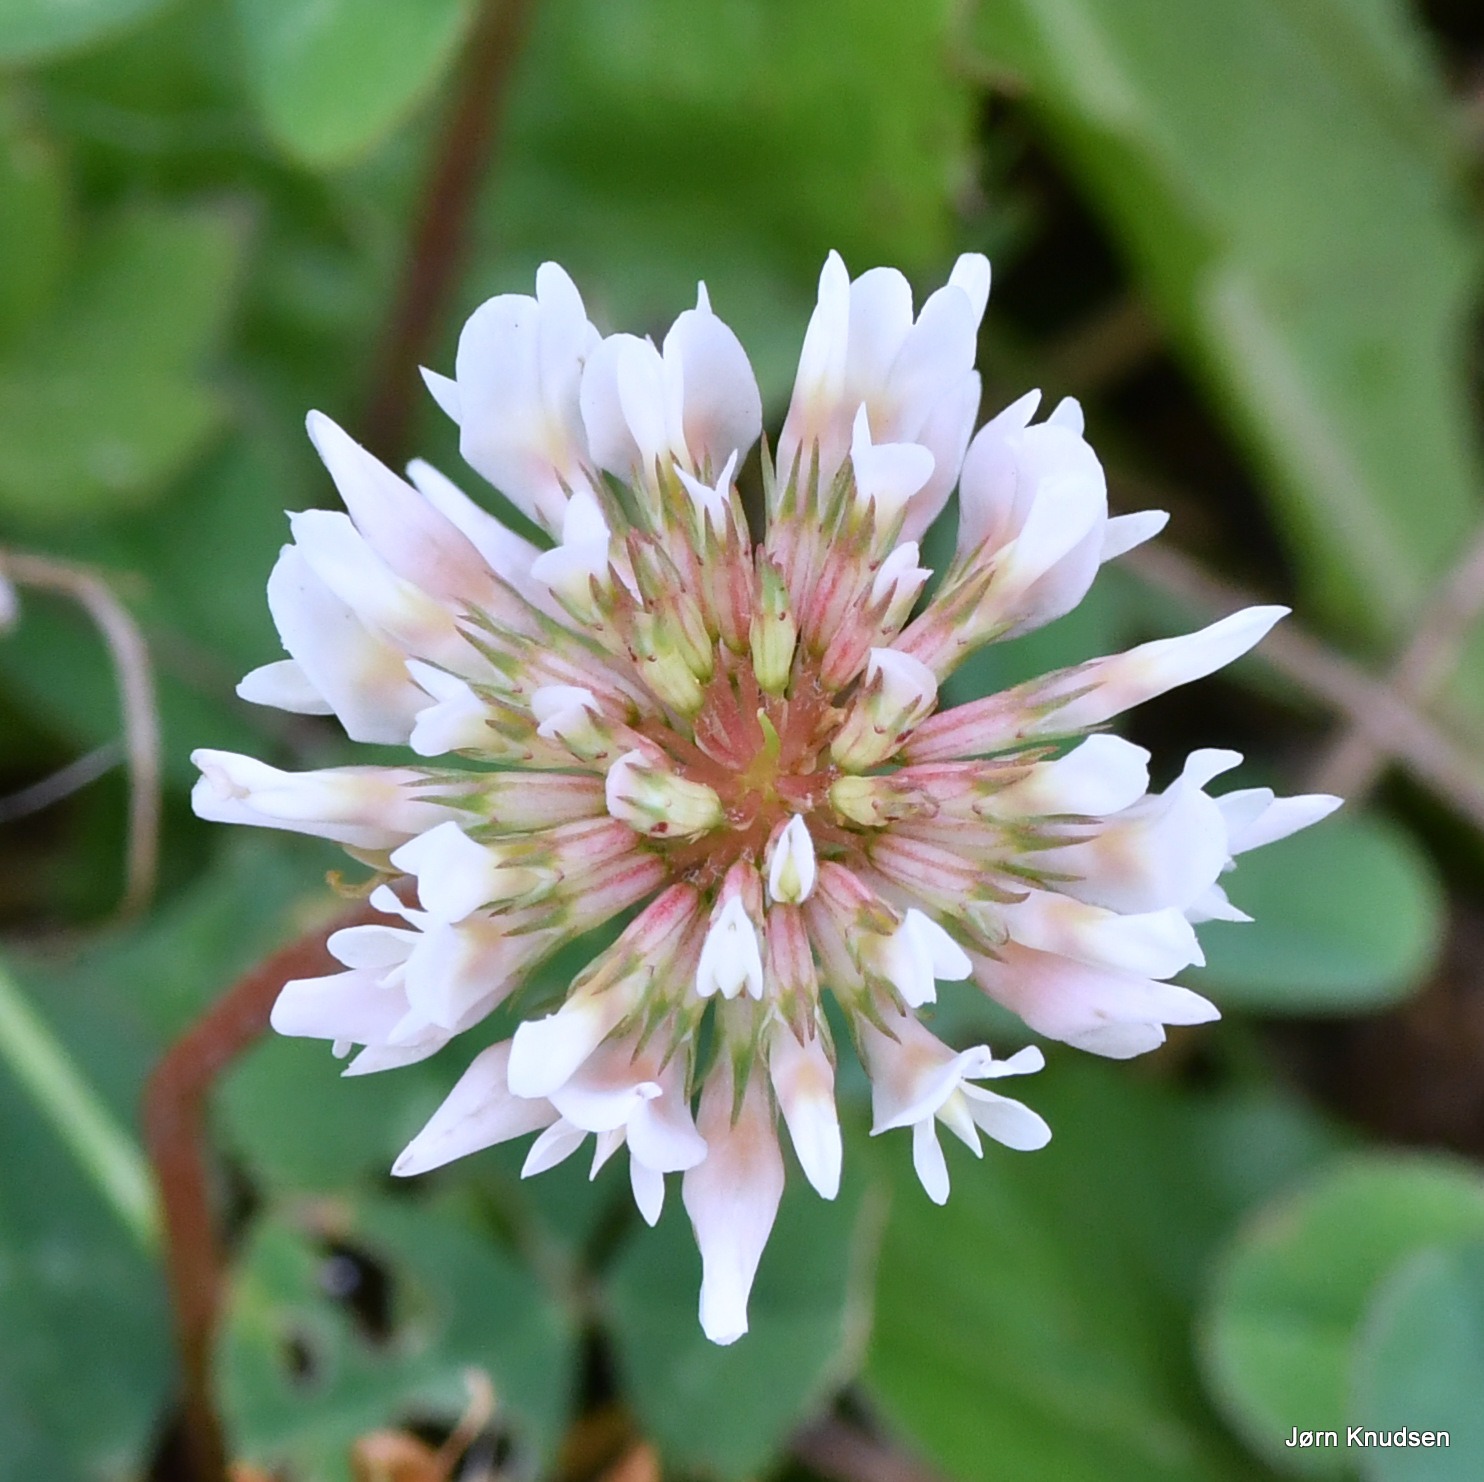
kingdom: Plantae
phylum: Tracheophyta
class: Magnoliopsida
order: Fabales
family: Fabaceae
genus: Trifolium
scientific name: Trifolium repens
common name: Hvid-kløver
